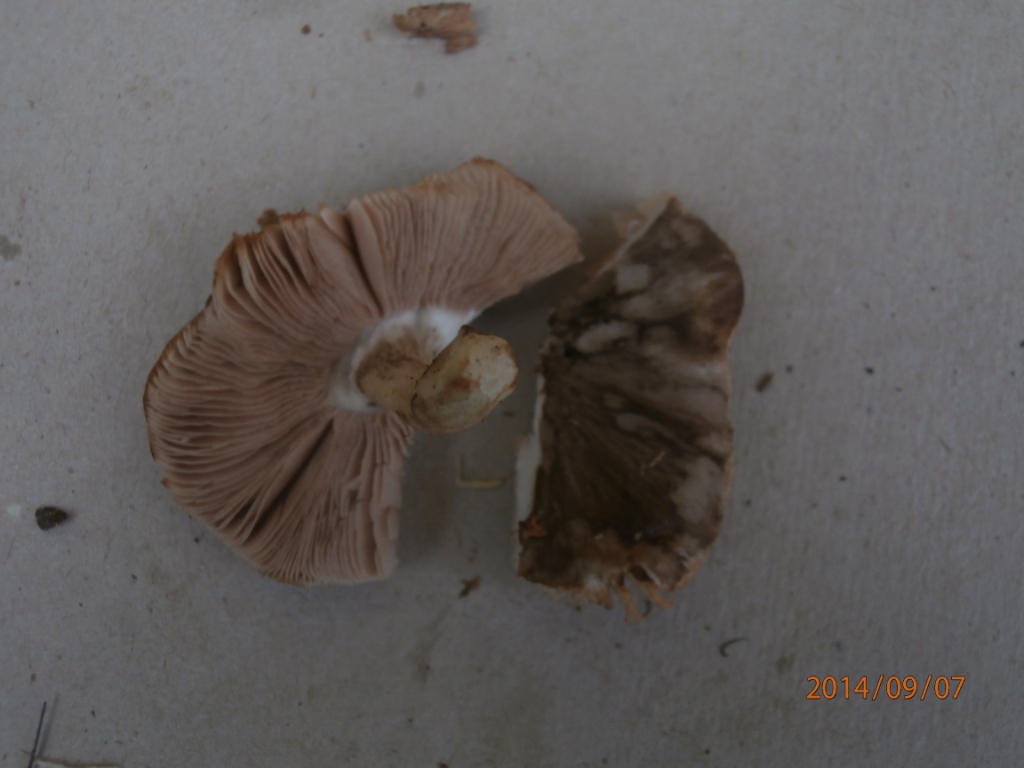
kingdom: Fungi
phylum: Basidiomycota
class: Agaricomycetes
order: Agaricales
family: Pluteaceae
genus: Pluteus
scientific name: Pluteus cervinus
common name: sodfarvet skærmhat
